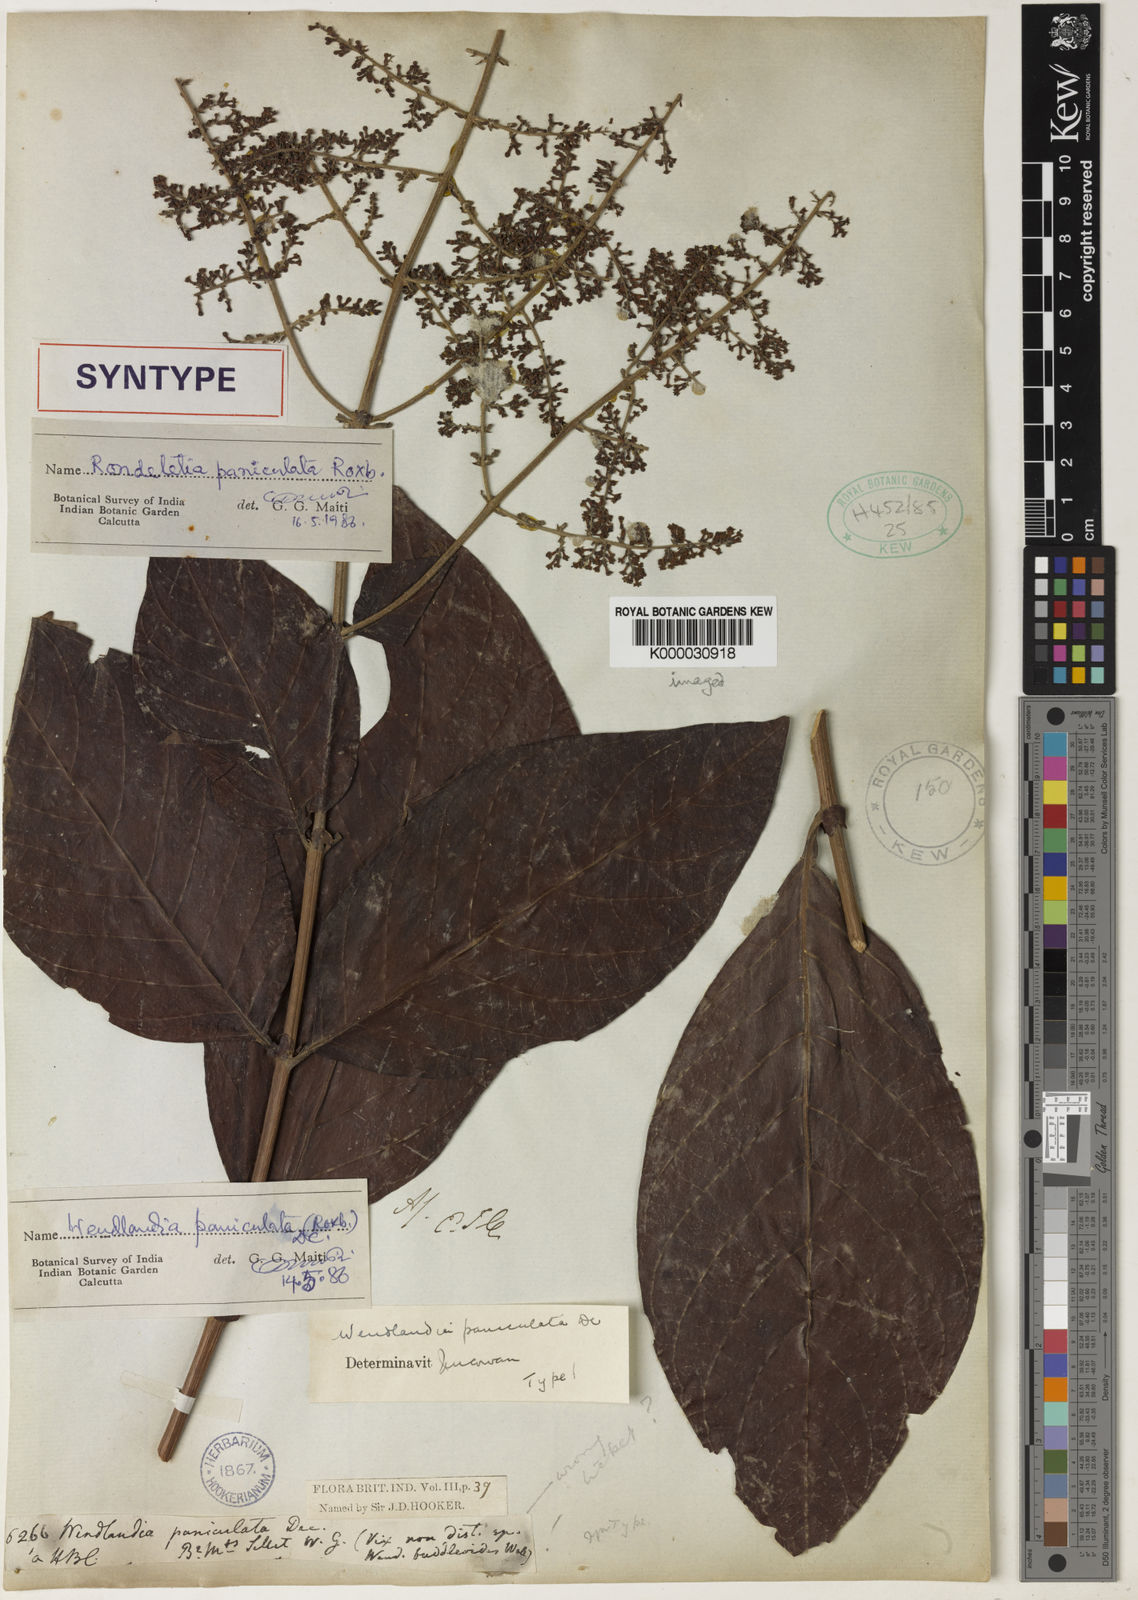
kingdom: Plantae
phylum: Tracheophyta
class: Magnoliopsida
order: Gentianales
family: Rubiaceae
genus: Wendlandia
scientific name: Wendlandia paniculata
